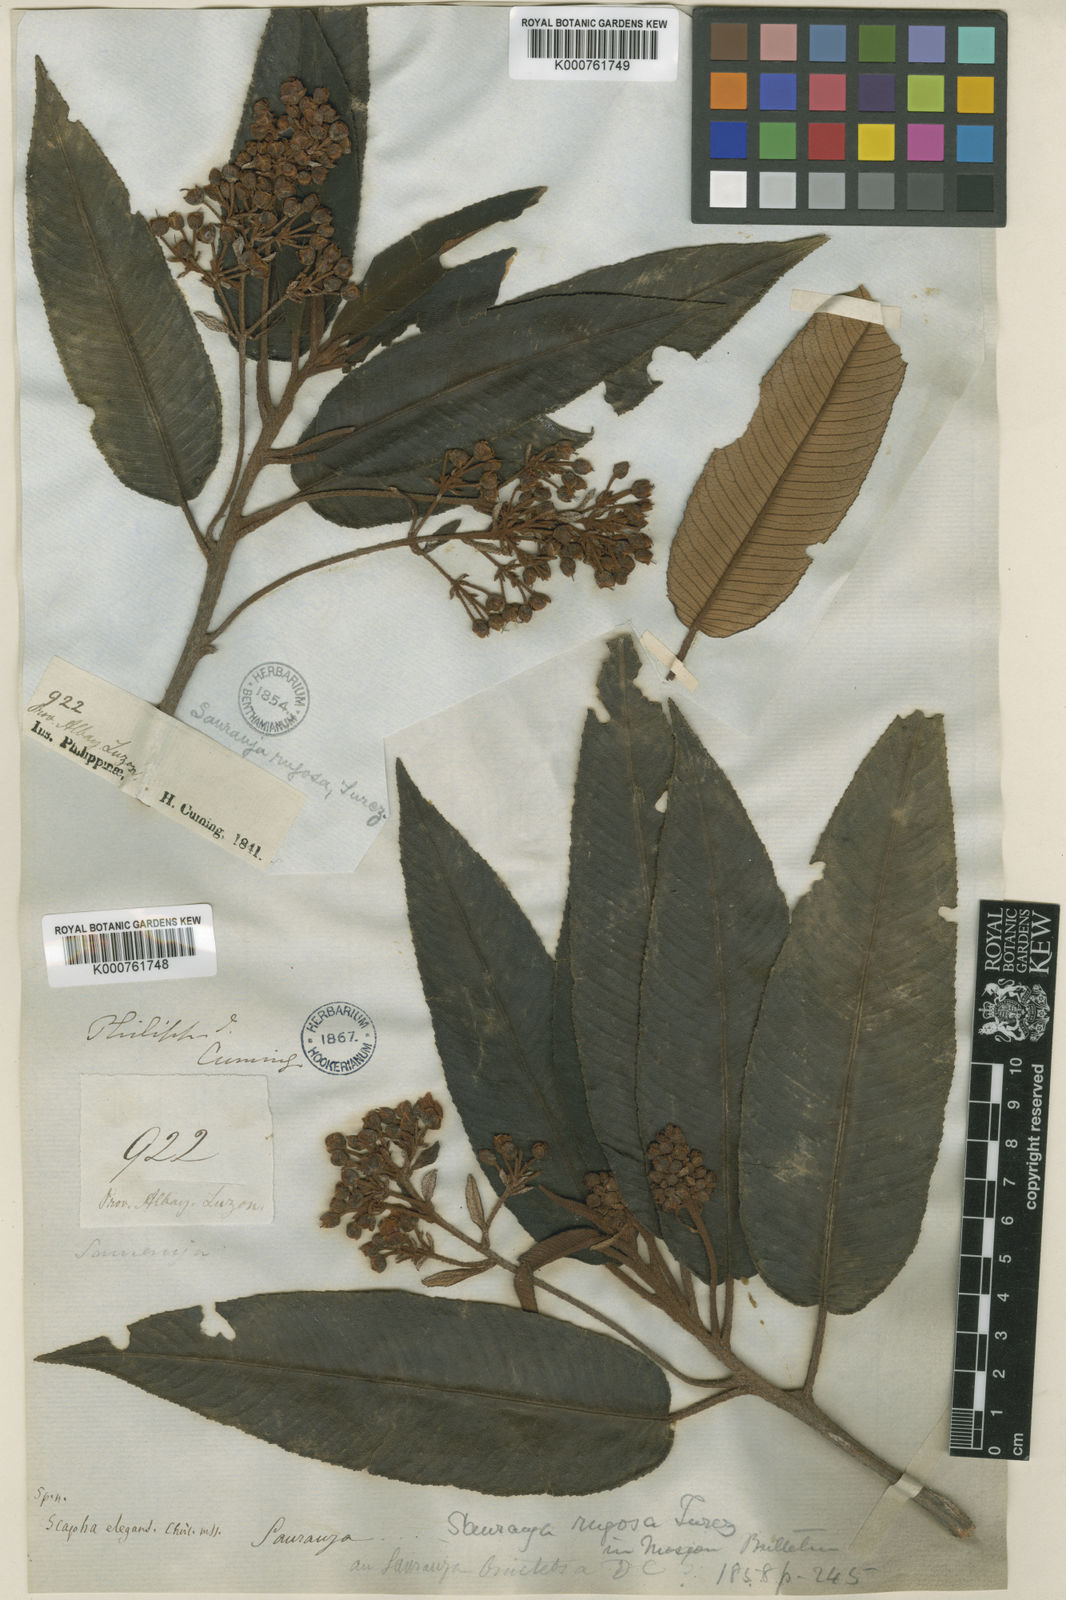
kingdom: Plantae
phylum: Tracheophyta
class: Magnoliopsida
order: Ericales
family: Actinidiaceae
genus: Saurauia
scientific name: Saurauia elegans
